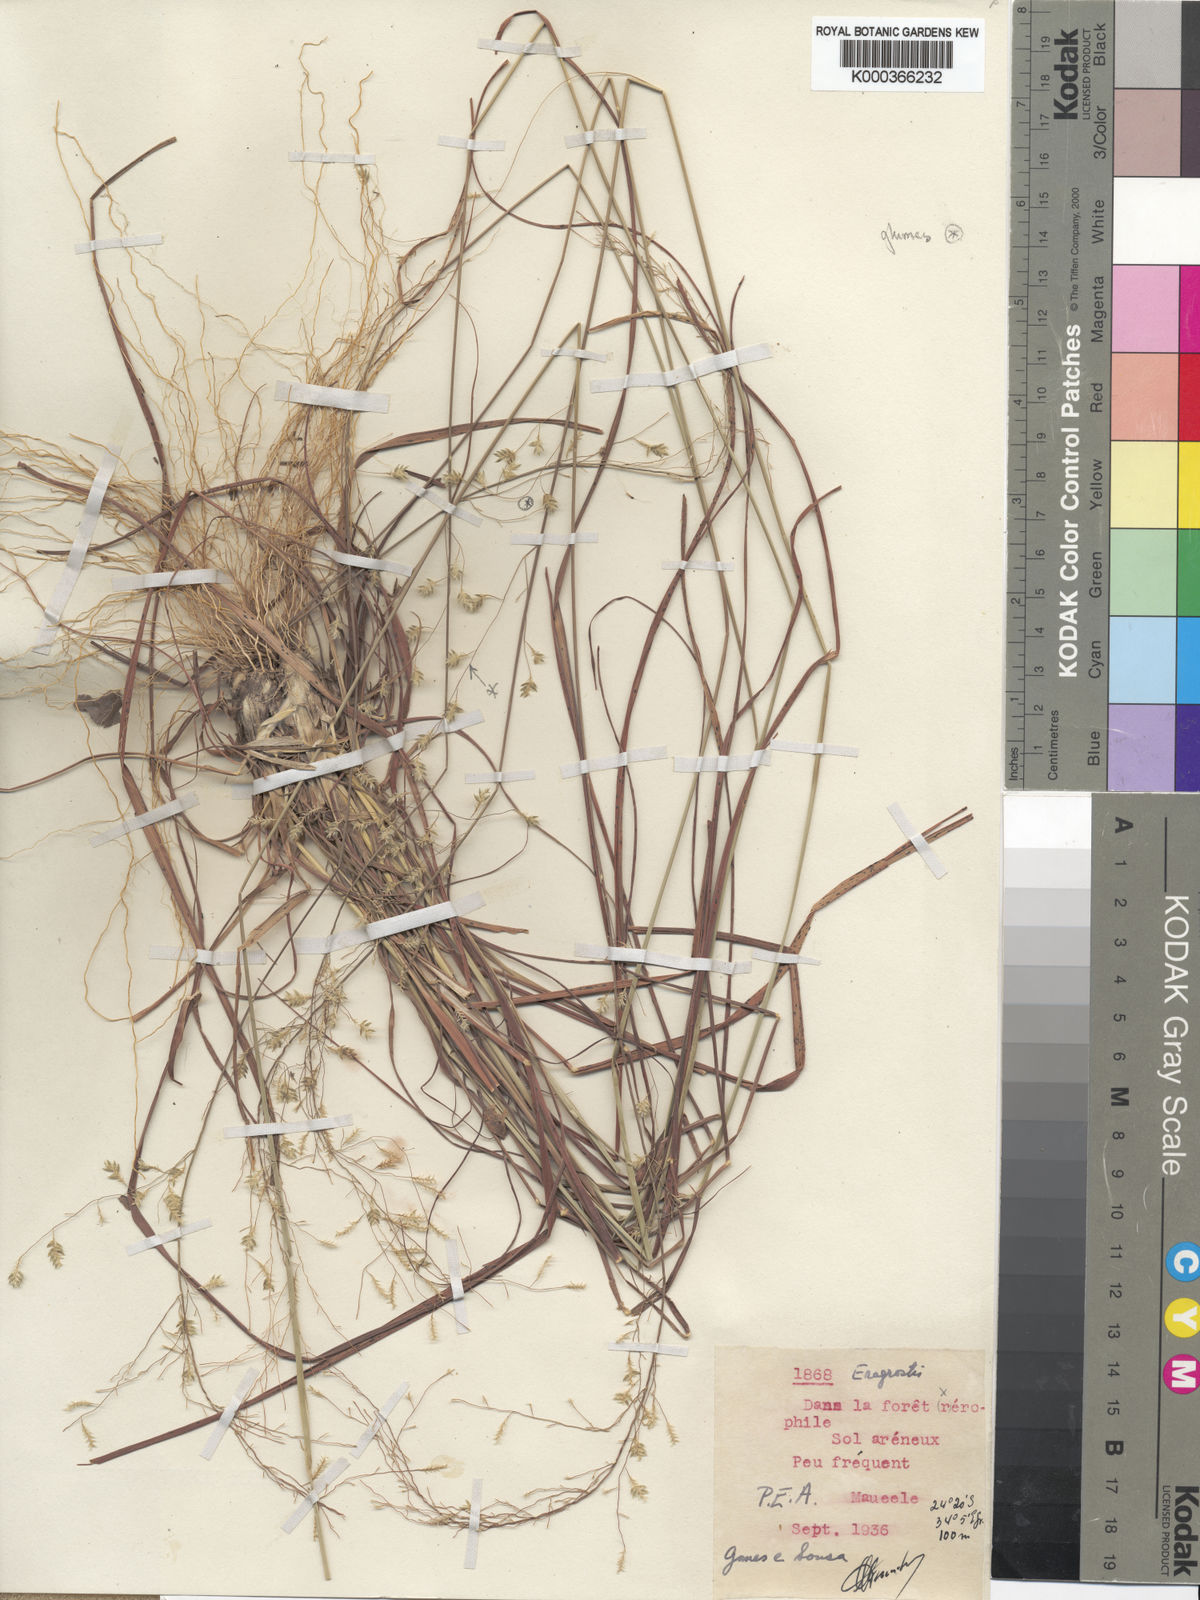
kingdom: Plantae
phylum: Tracheophyta
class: Liliopsida
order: Poales
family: Poaceae
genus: Eragrostis
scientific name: Eragrostis sericata
